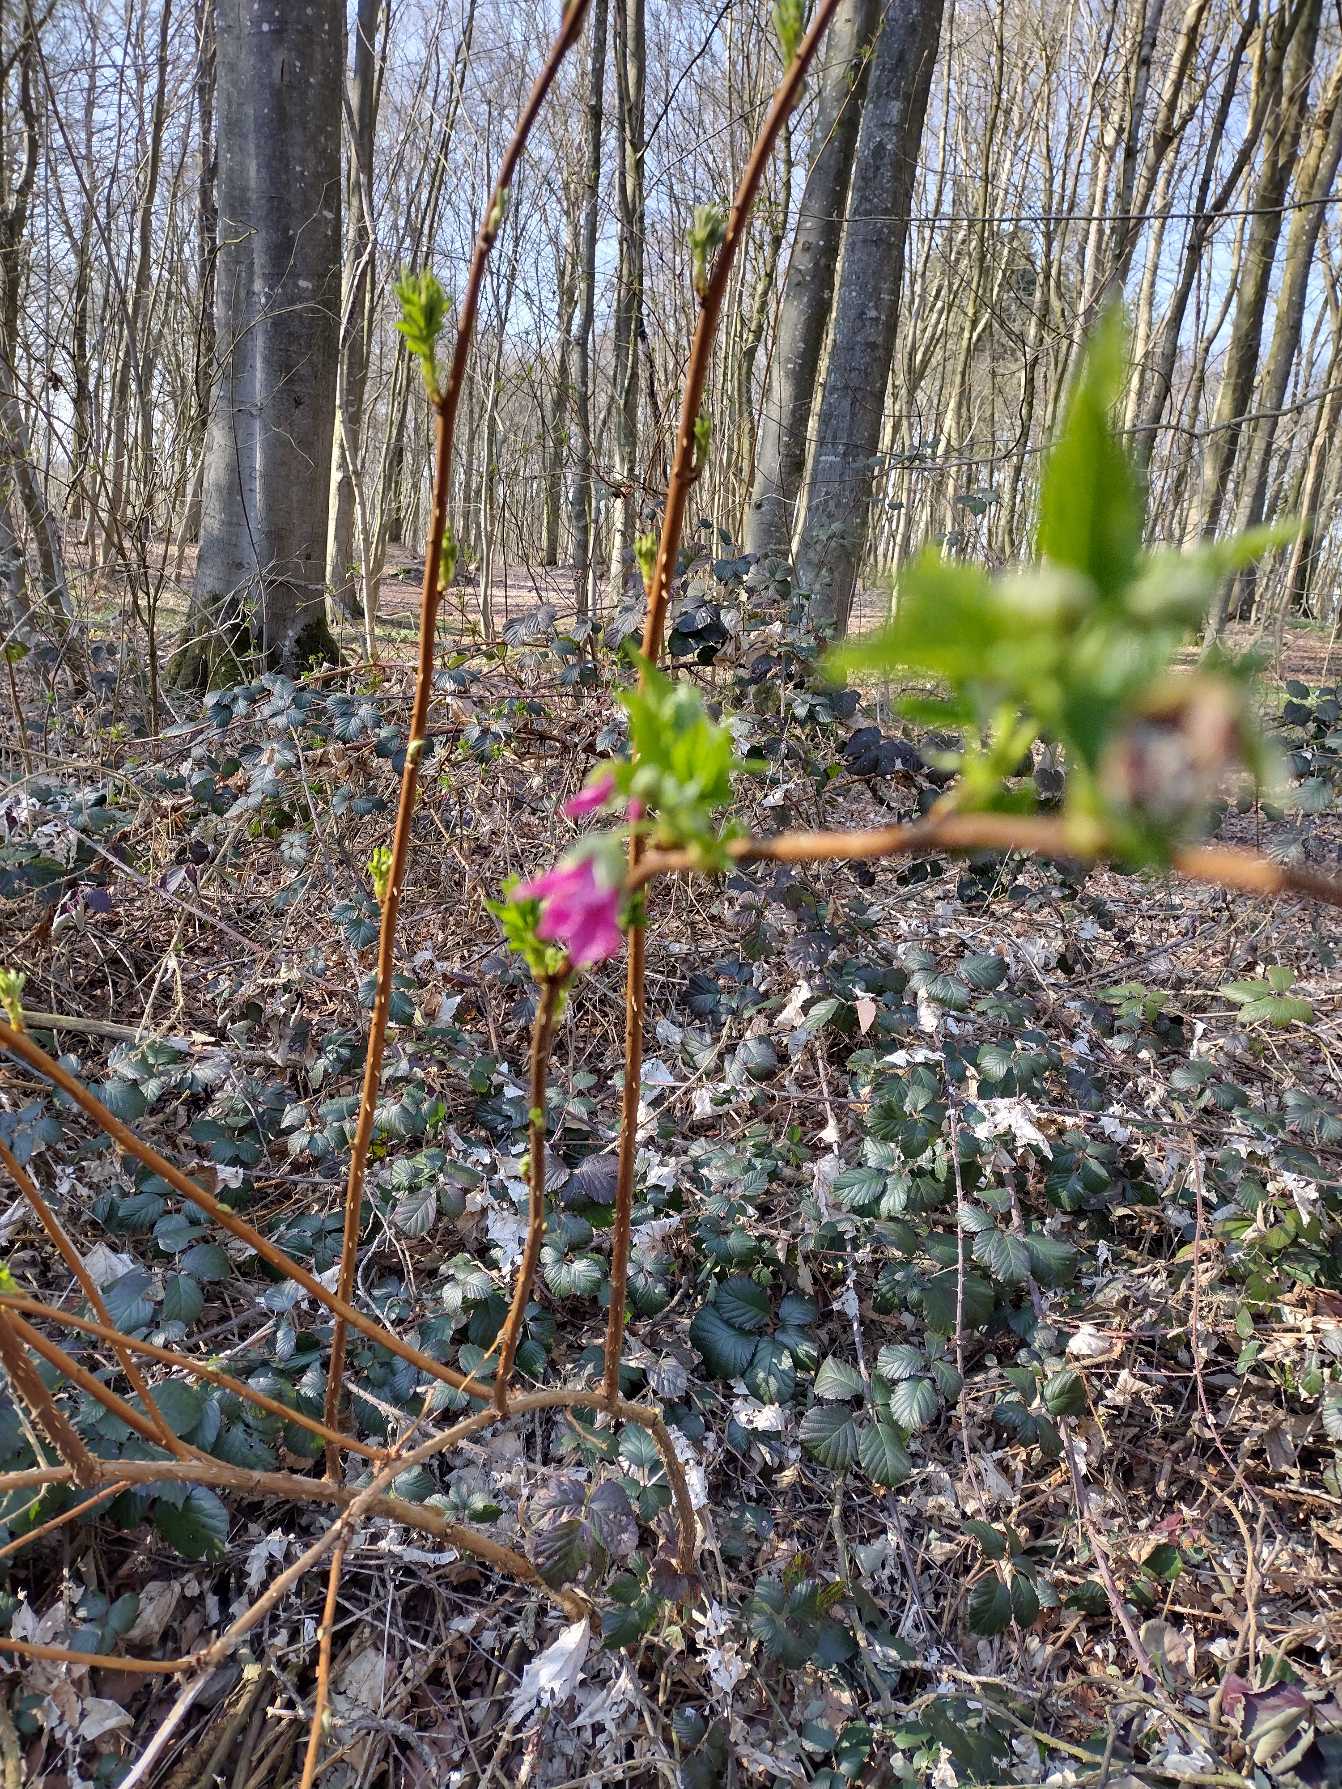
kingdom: Plantae
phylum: Tracheophyta
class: Magnoliopsida
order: Rosales
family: Rosaceae
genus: Rubus
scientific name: Rubus spectabilis
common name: Laksebær
